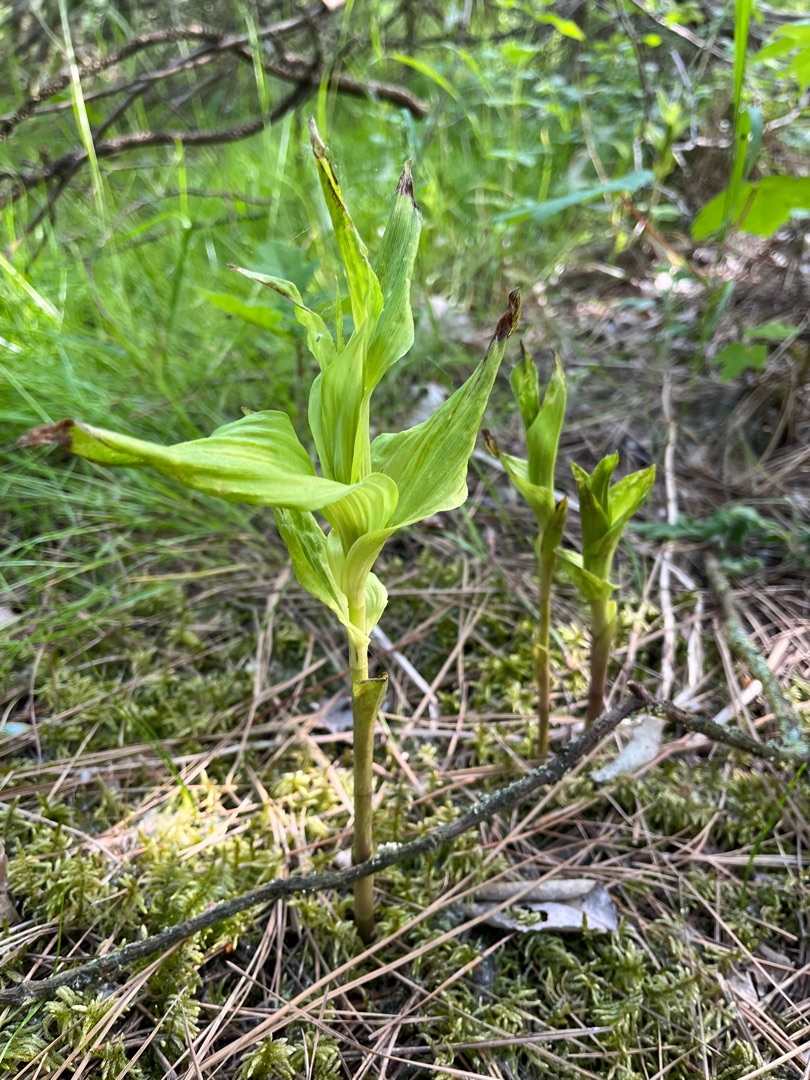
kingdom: Plantae
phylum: Tracheophyta
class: Liliopsida
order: Asparagales
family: Orchidaceae
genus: Epipactis
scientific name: Epipactis helleborine
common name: Skov-hullæbe
